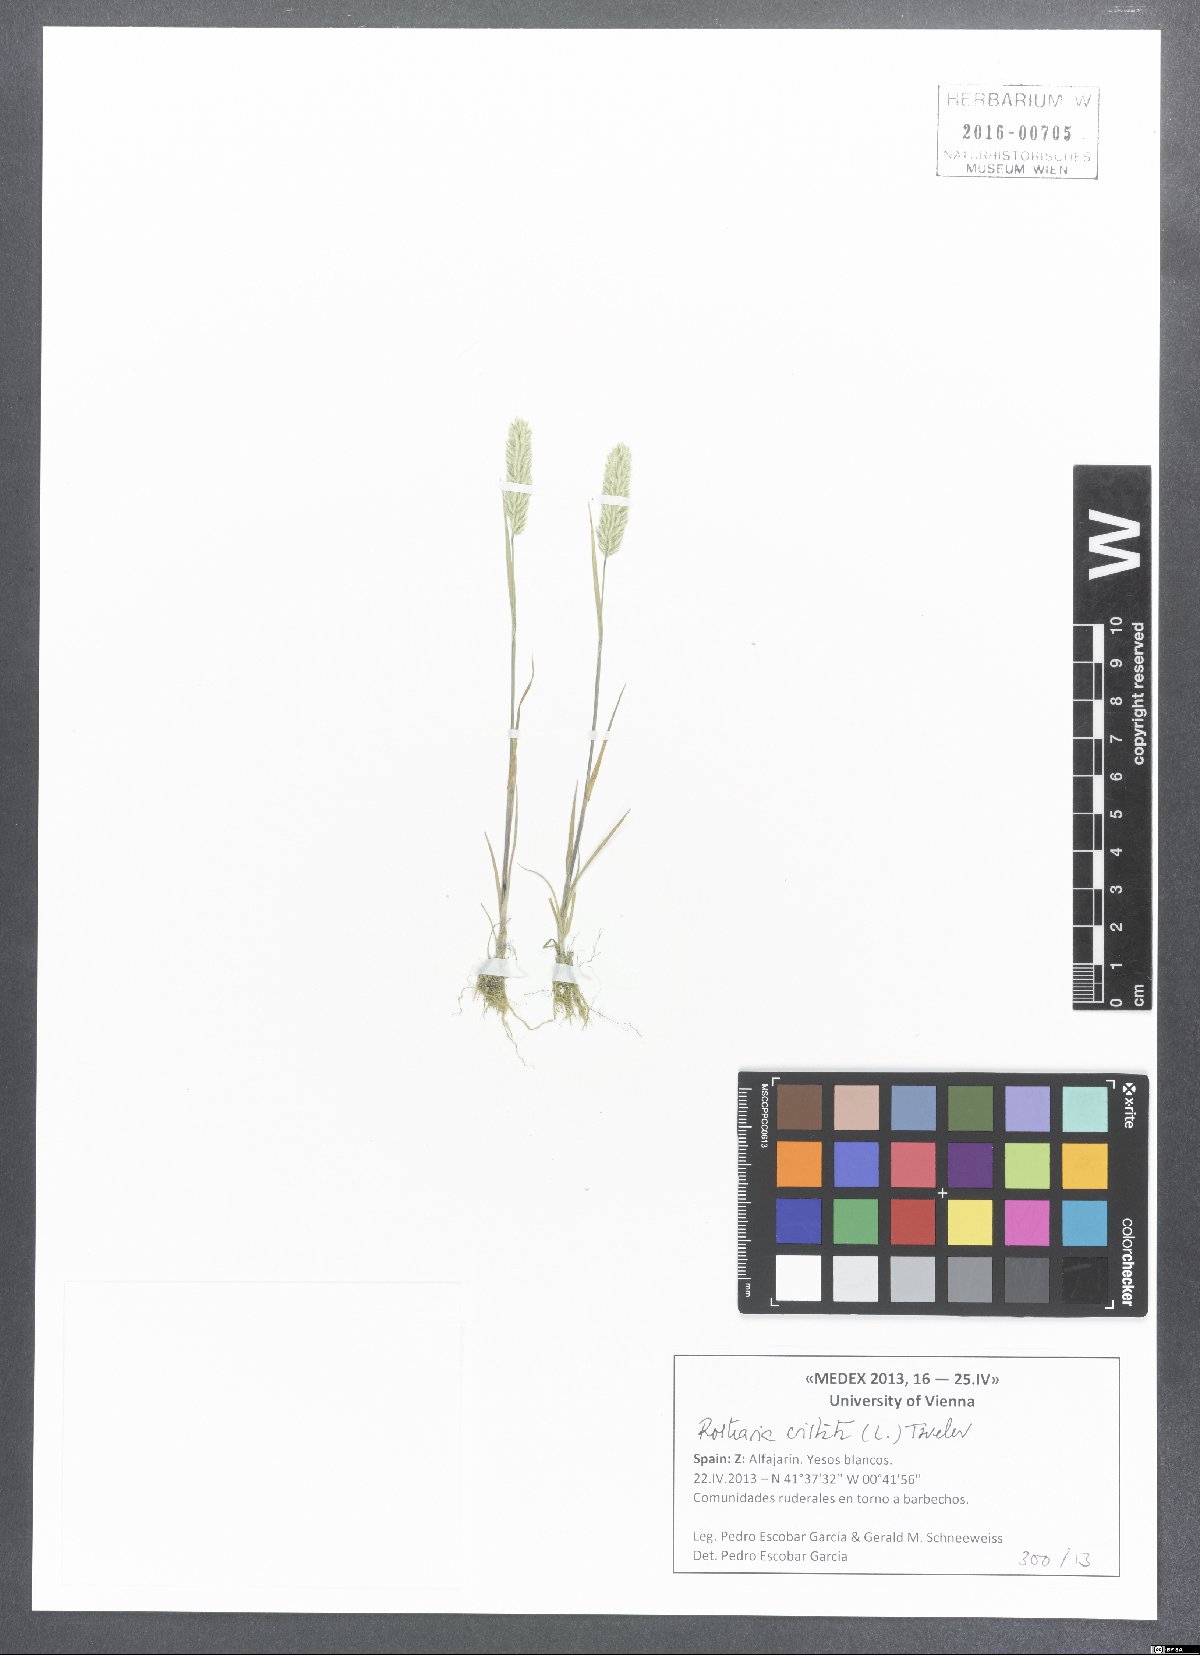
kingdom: Plantae
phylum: Tracheophyta
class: Liliopsida
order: Poales
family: Poaceae
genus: Rostraria
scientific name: Rostraria cristata
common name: Mediterranean hair-grass
